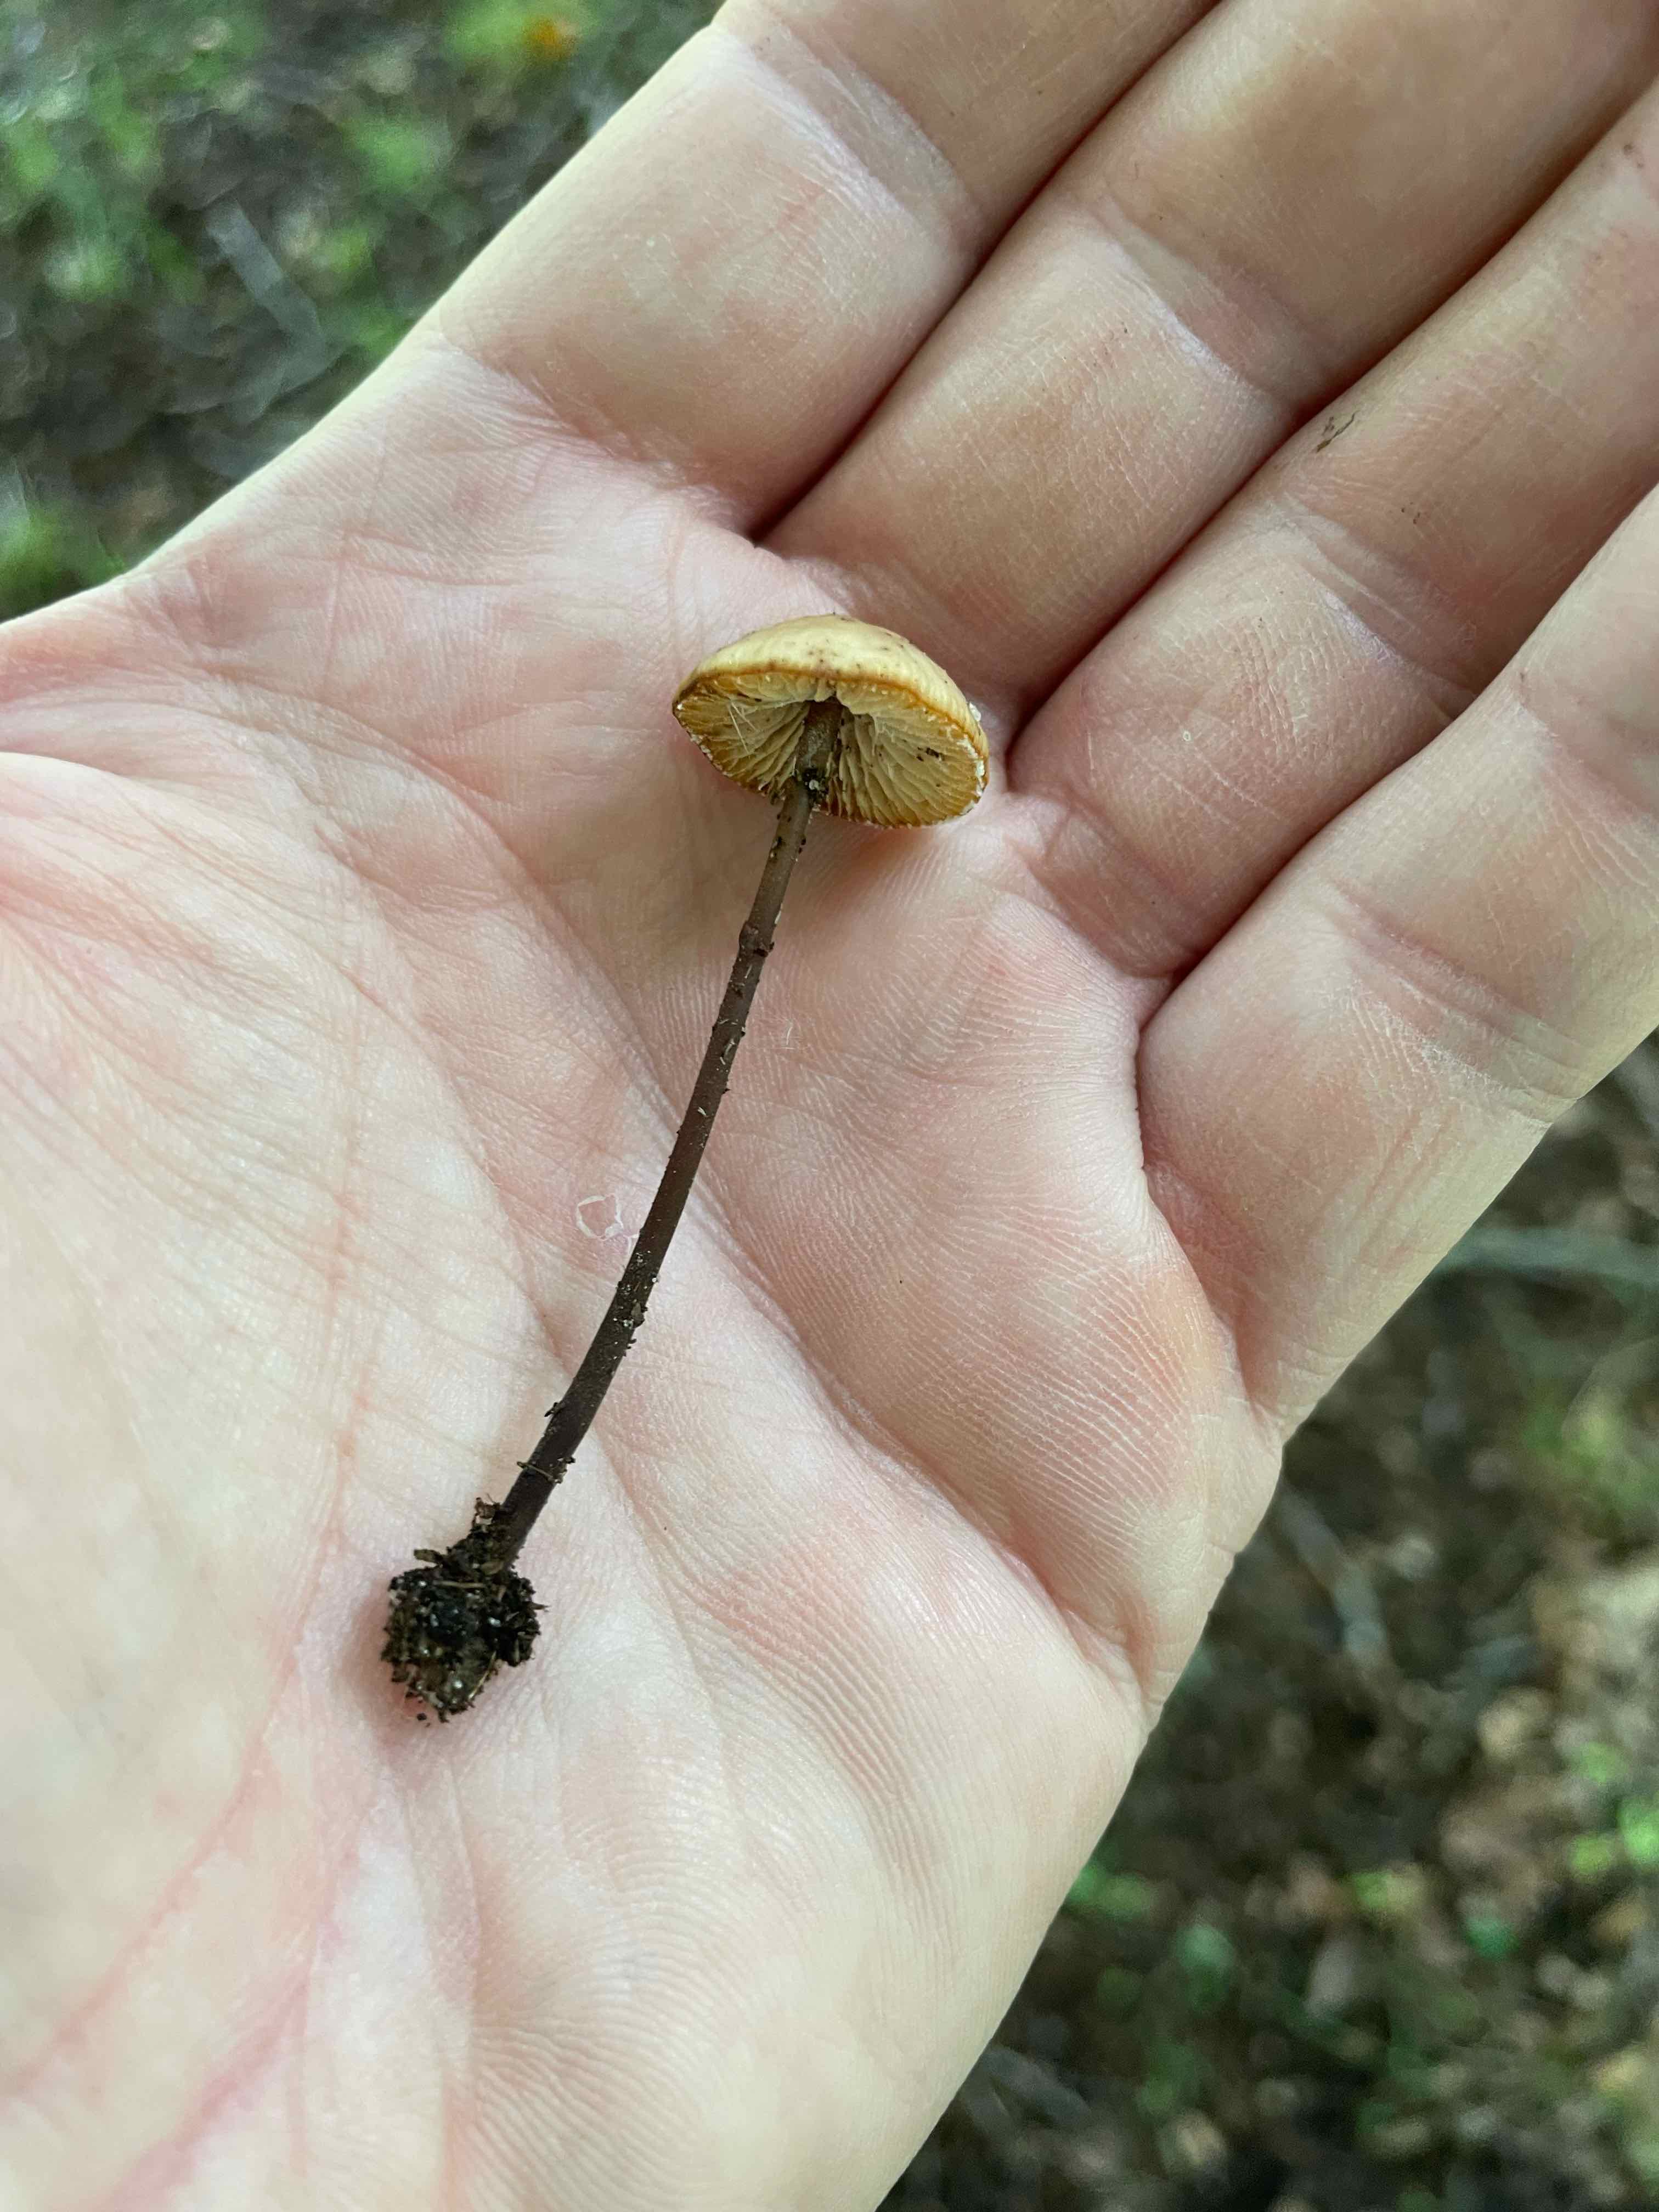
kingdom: Fungi
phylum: Basidiomycota
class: Agaricomycetes
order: Agaricales
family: Omphalotaceae
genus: Mycetinis
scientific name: Mycetinis alliaceus
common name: stor løghat
